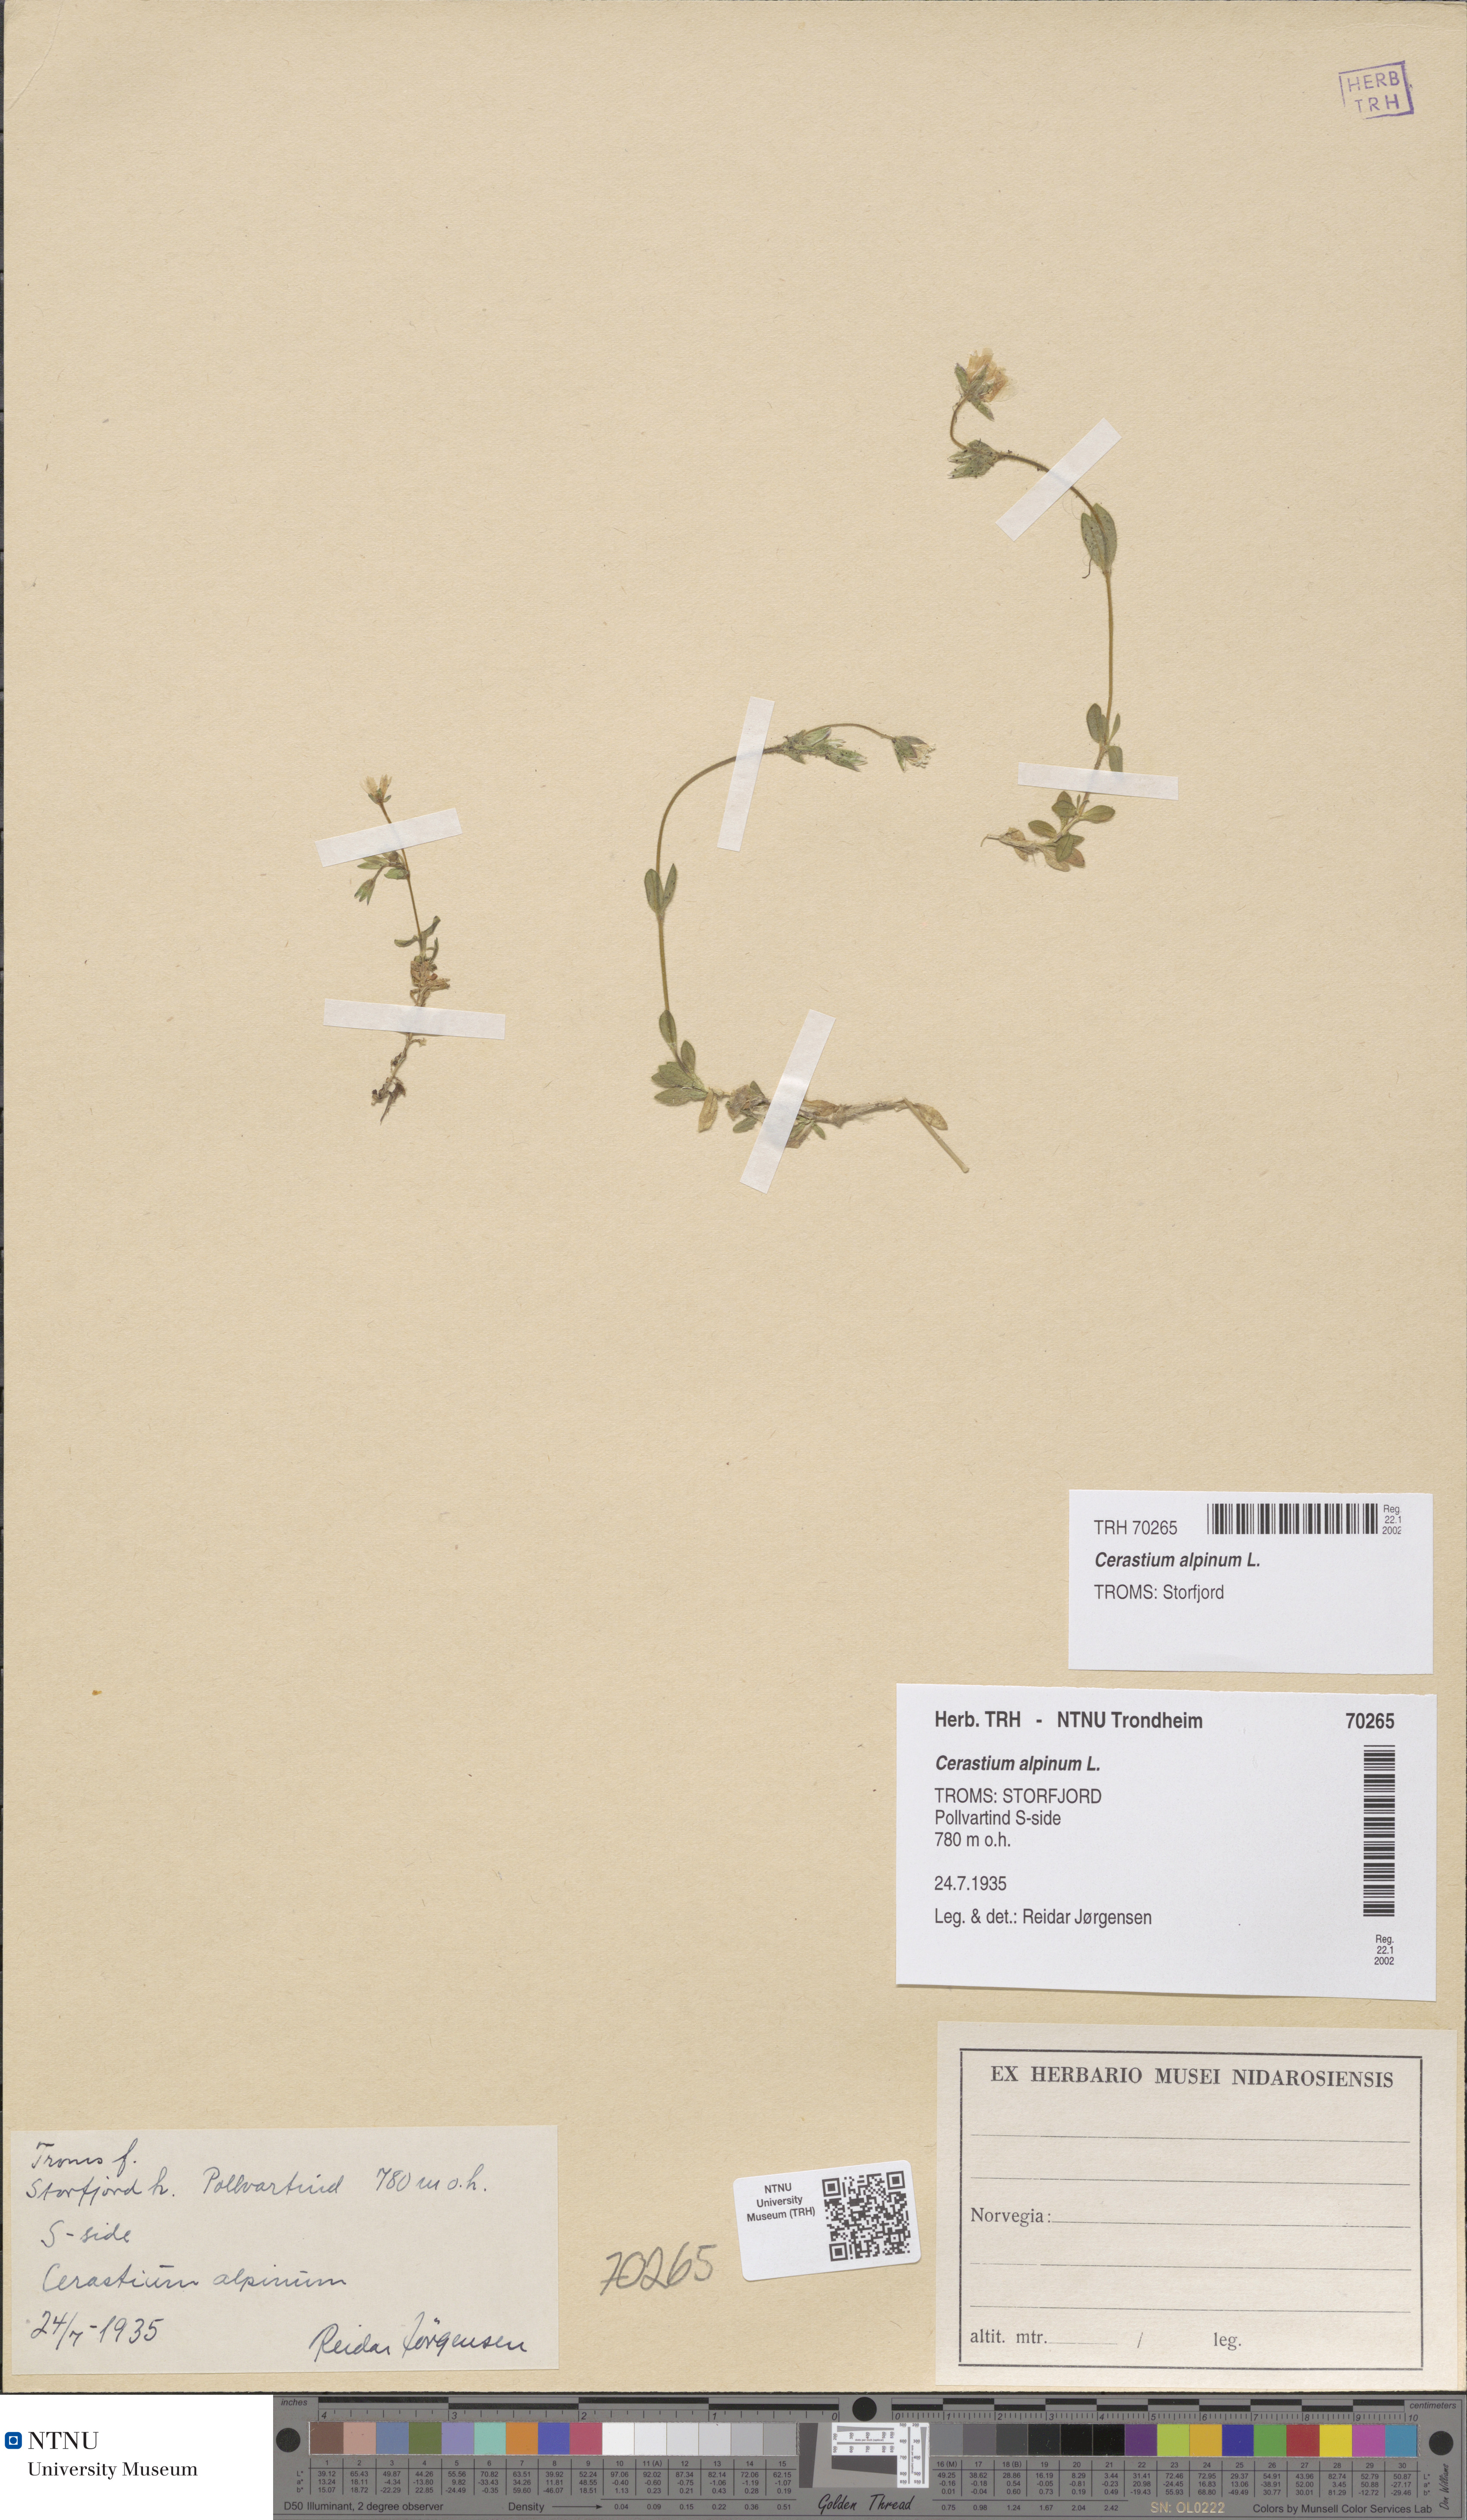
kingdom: Plantae
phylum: Tracheophyta
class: Magnoliopsida
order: Caryophyllales
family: Caryophyllaceae
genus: Cerastium
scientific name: Cerastium alpinum
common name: Alpine mouse-ear
